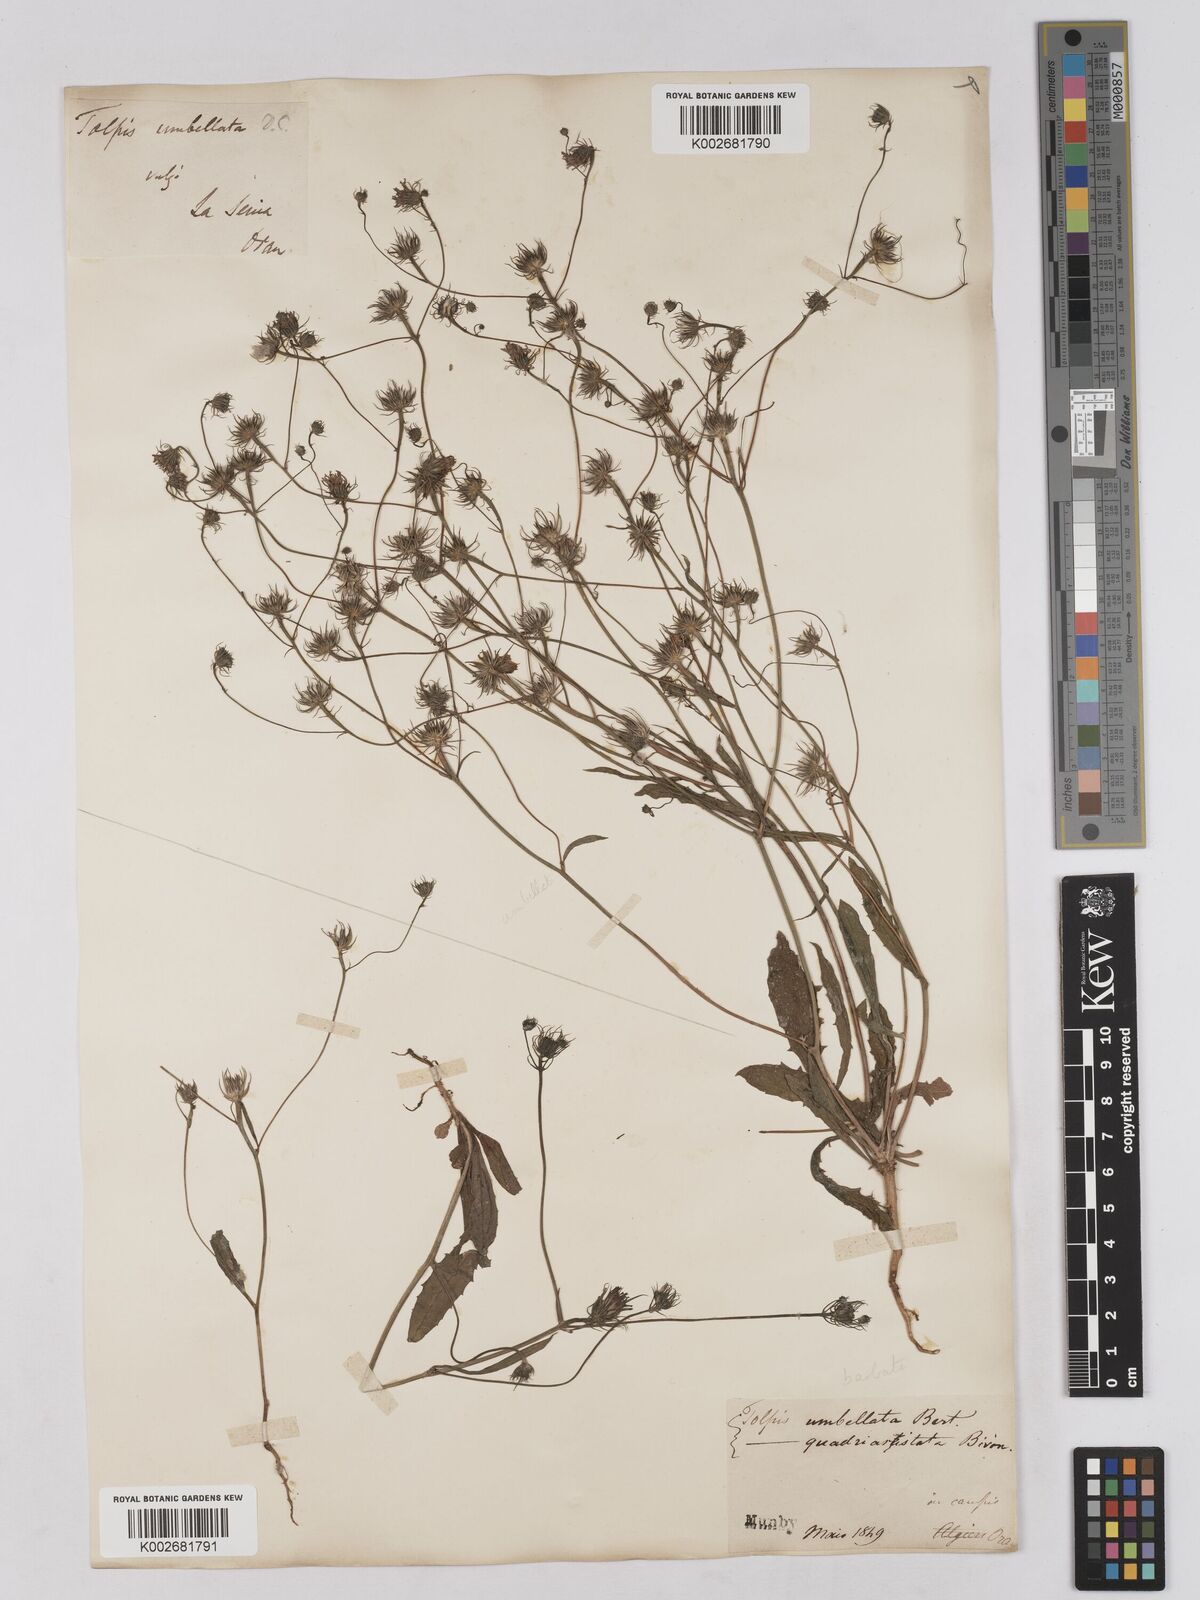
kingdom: Plantae
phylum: Tracheophyta
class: Magnoliopsida
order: Asterales
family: Asteraceae
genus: Tolpis
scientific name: Tolpis umbellata
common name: Yellow hawkweed
